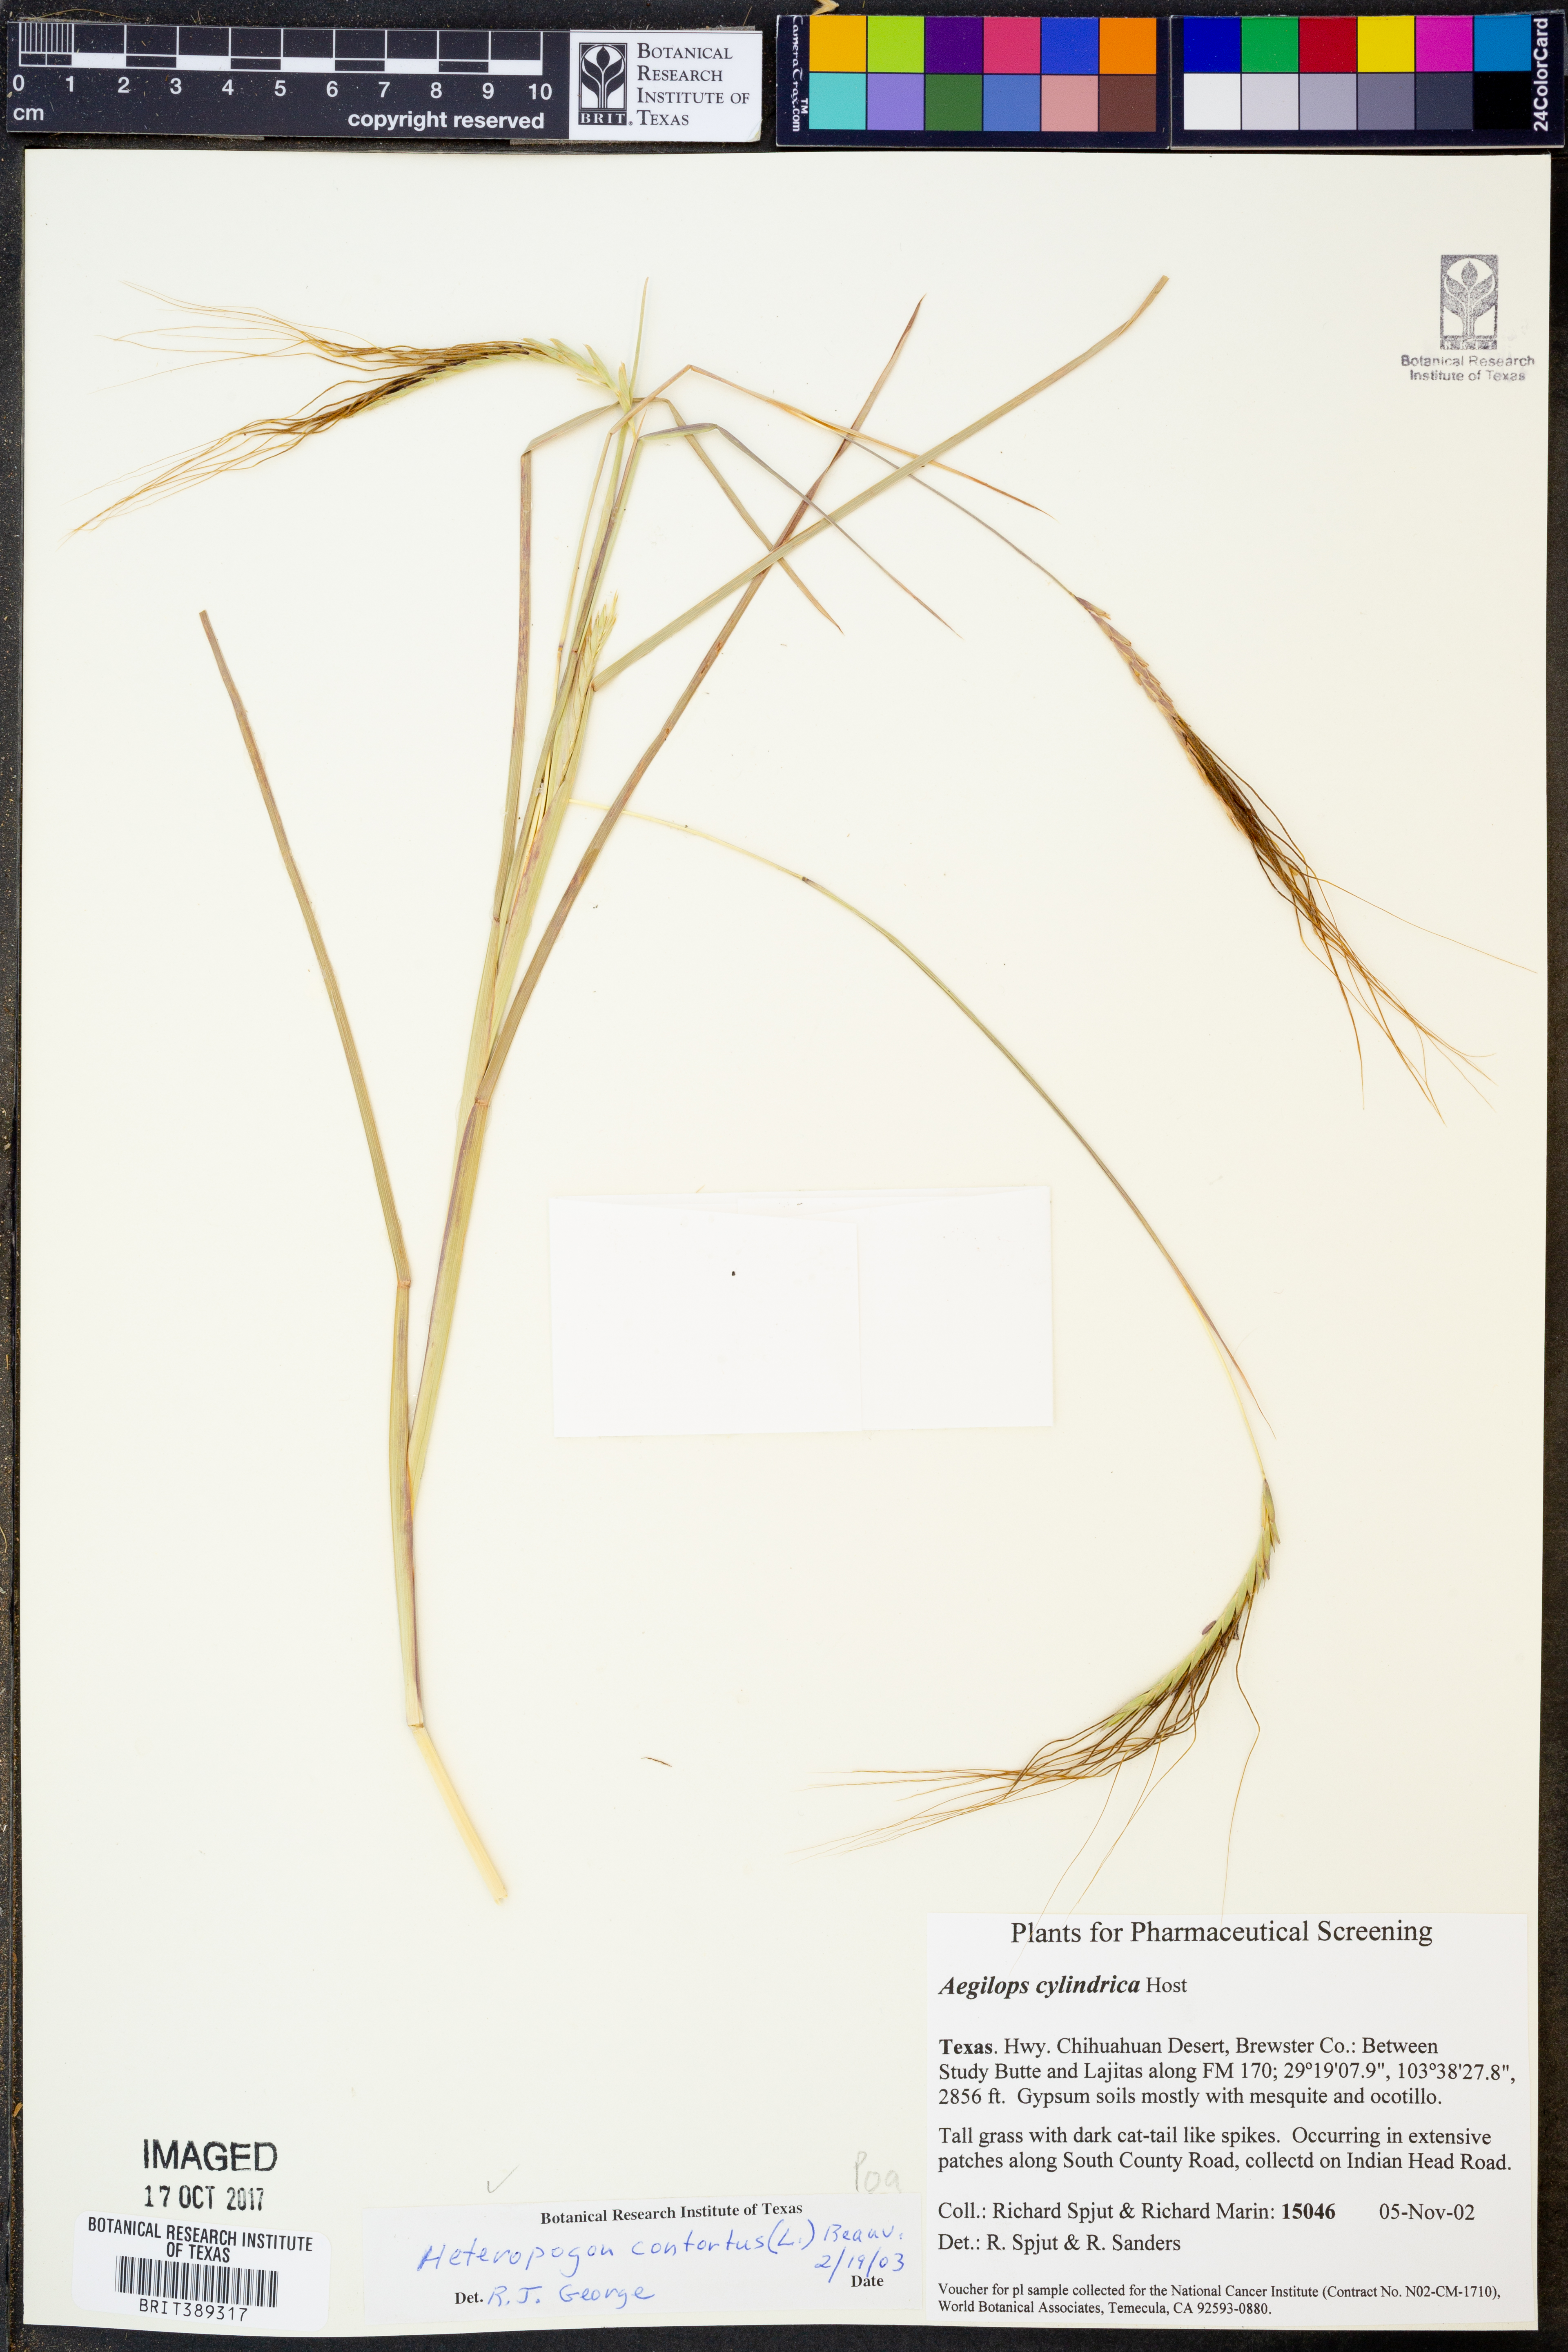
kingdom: Plantae
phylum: Tracheophyta
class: Liliopsida
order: Poales
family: Poaceae
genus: Aegilops
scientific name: Aegilops cylindrica
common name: Jointed goatgrass
